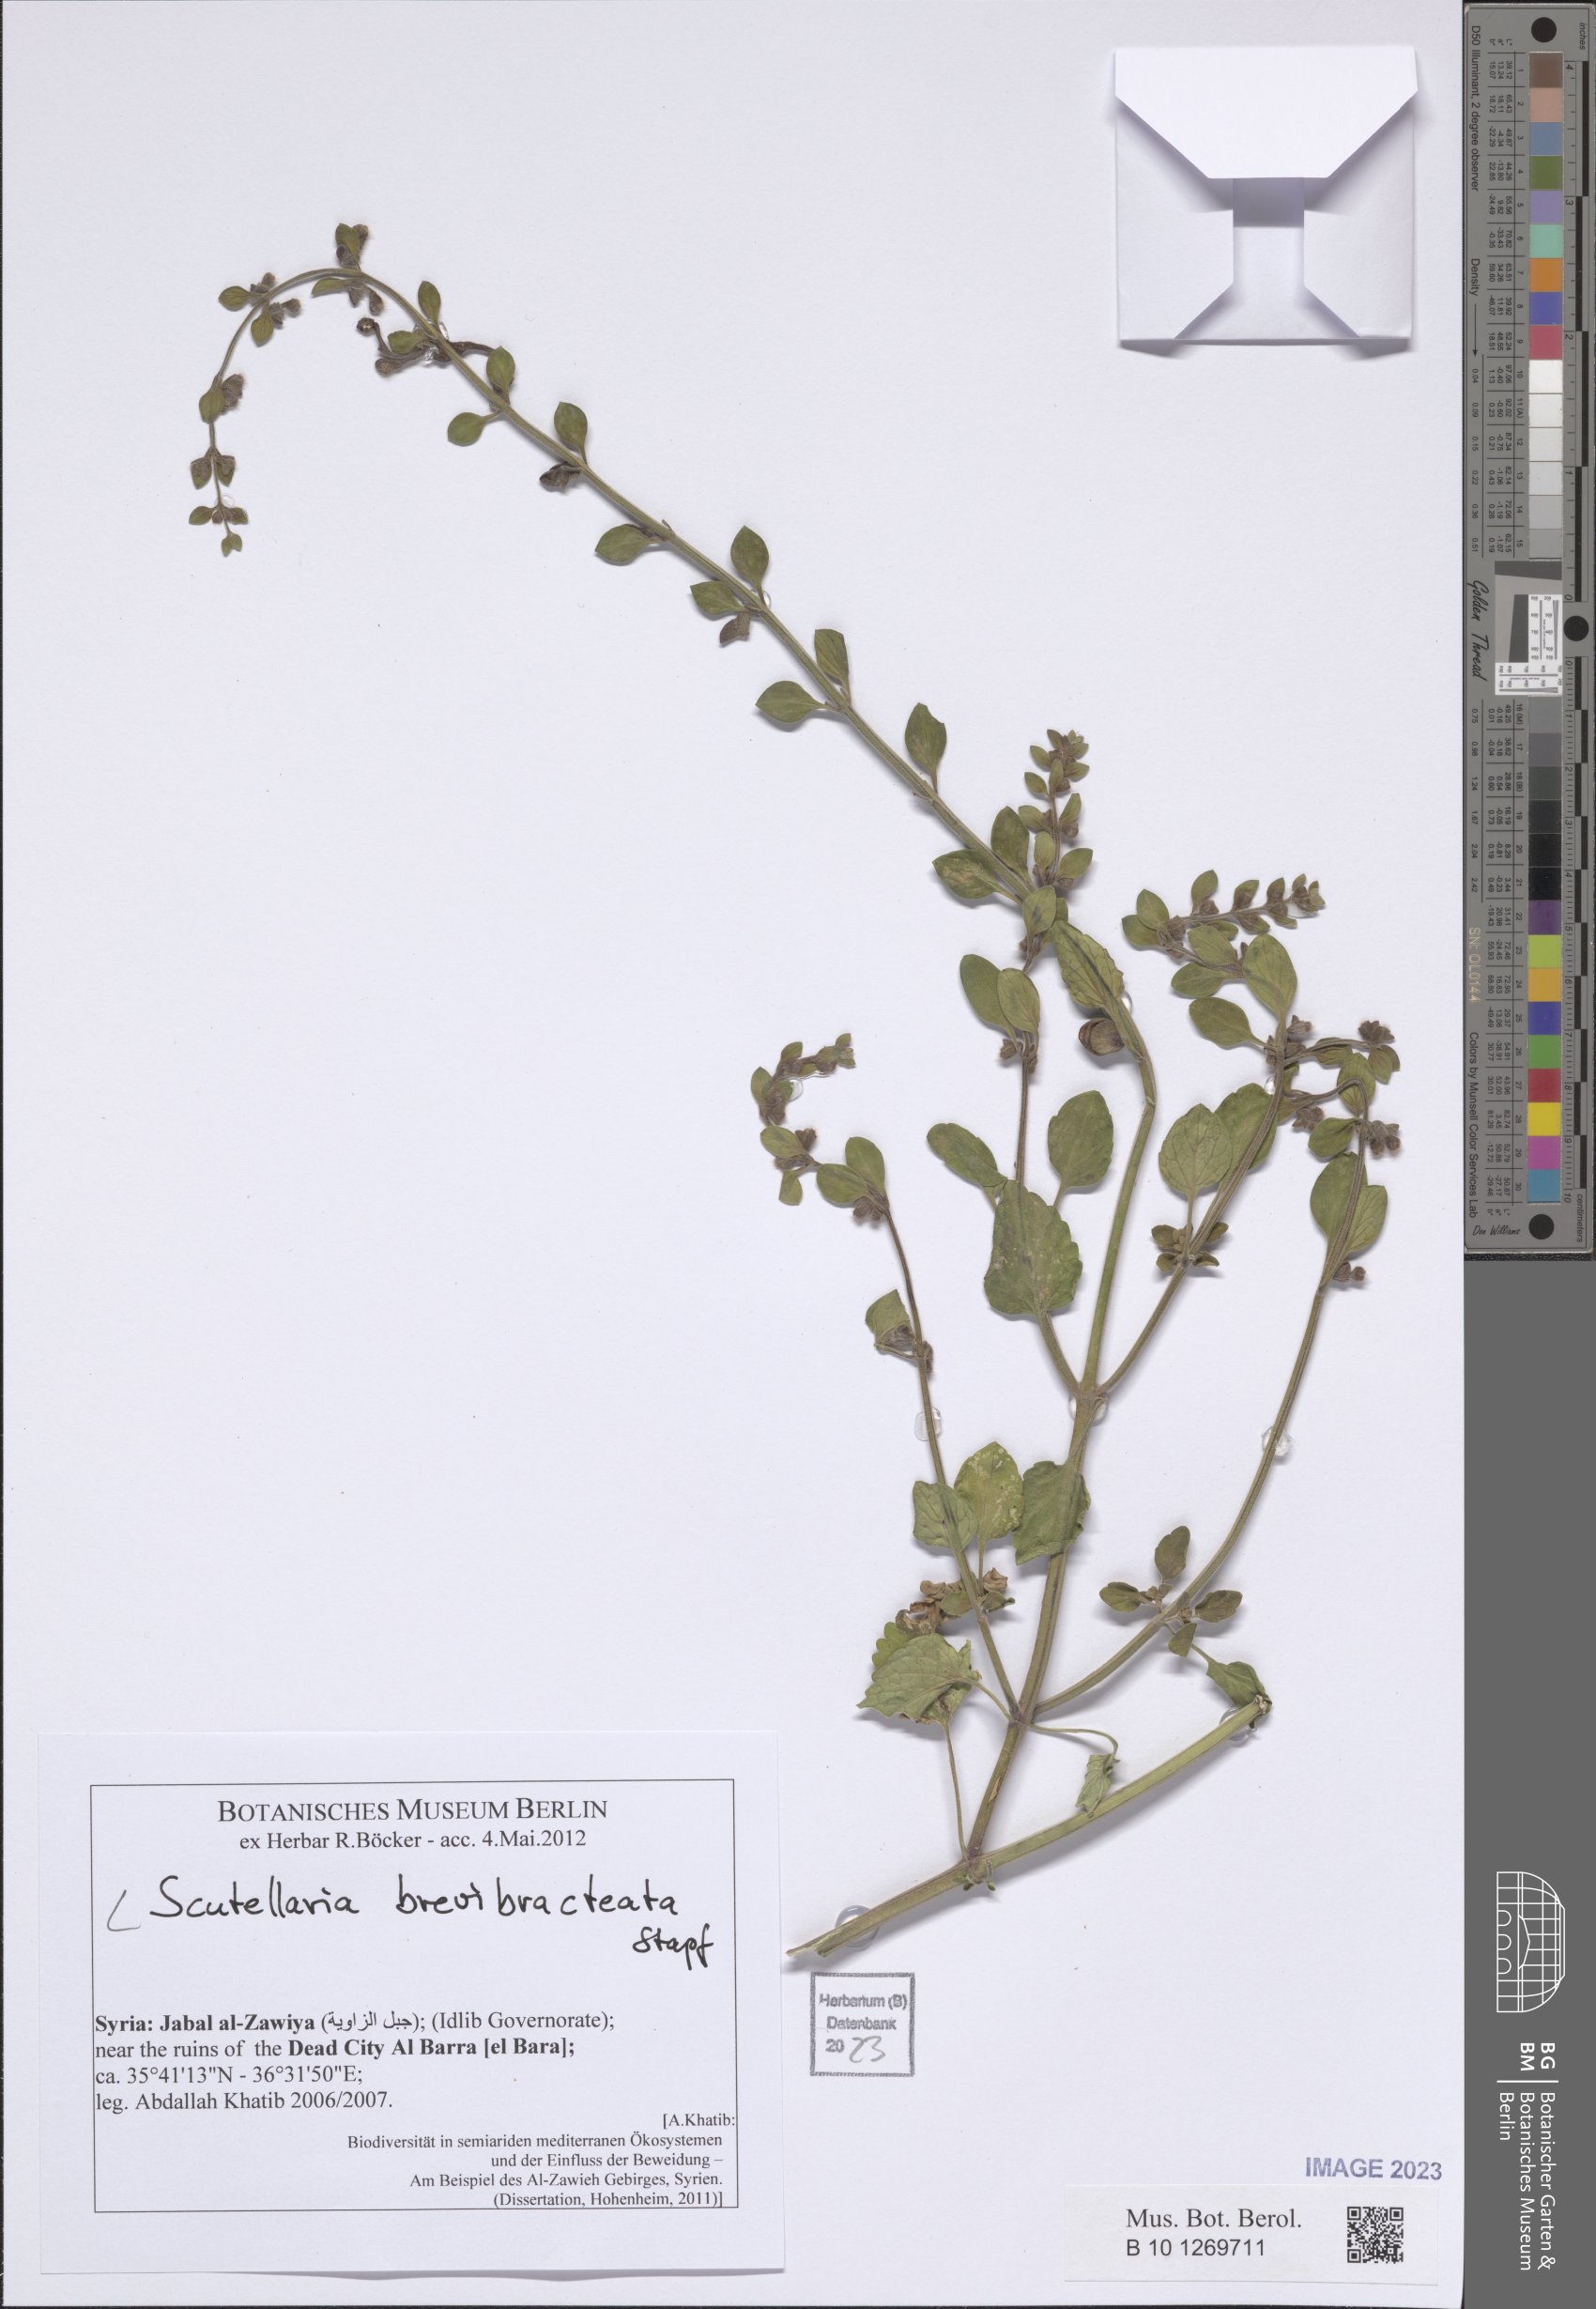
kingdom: Plantae
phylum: Tracheophyta
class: Magnoliopsida
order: Lamiales
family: Lamiaceae
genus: Scutellaria
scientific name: Scutellaria brevibracteata
